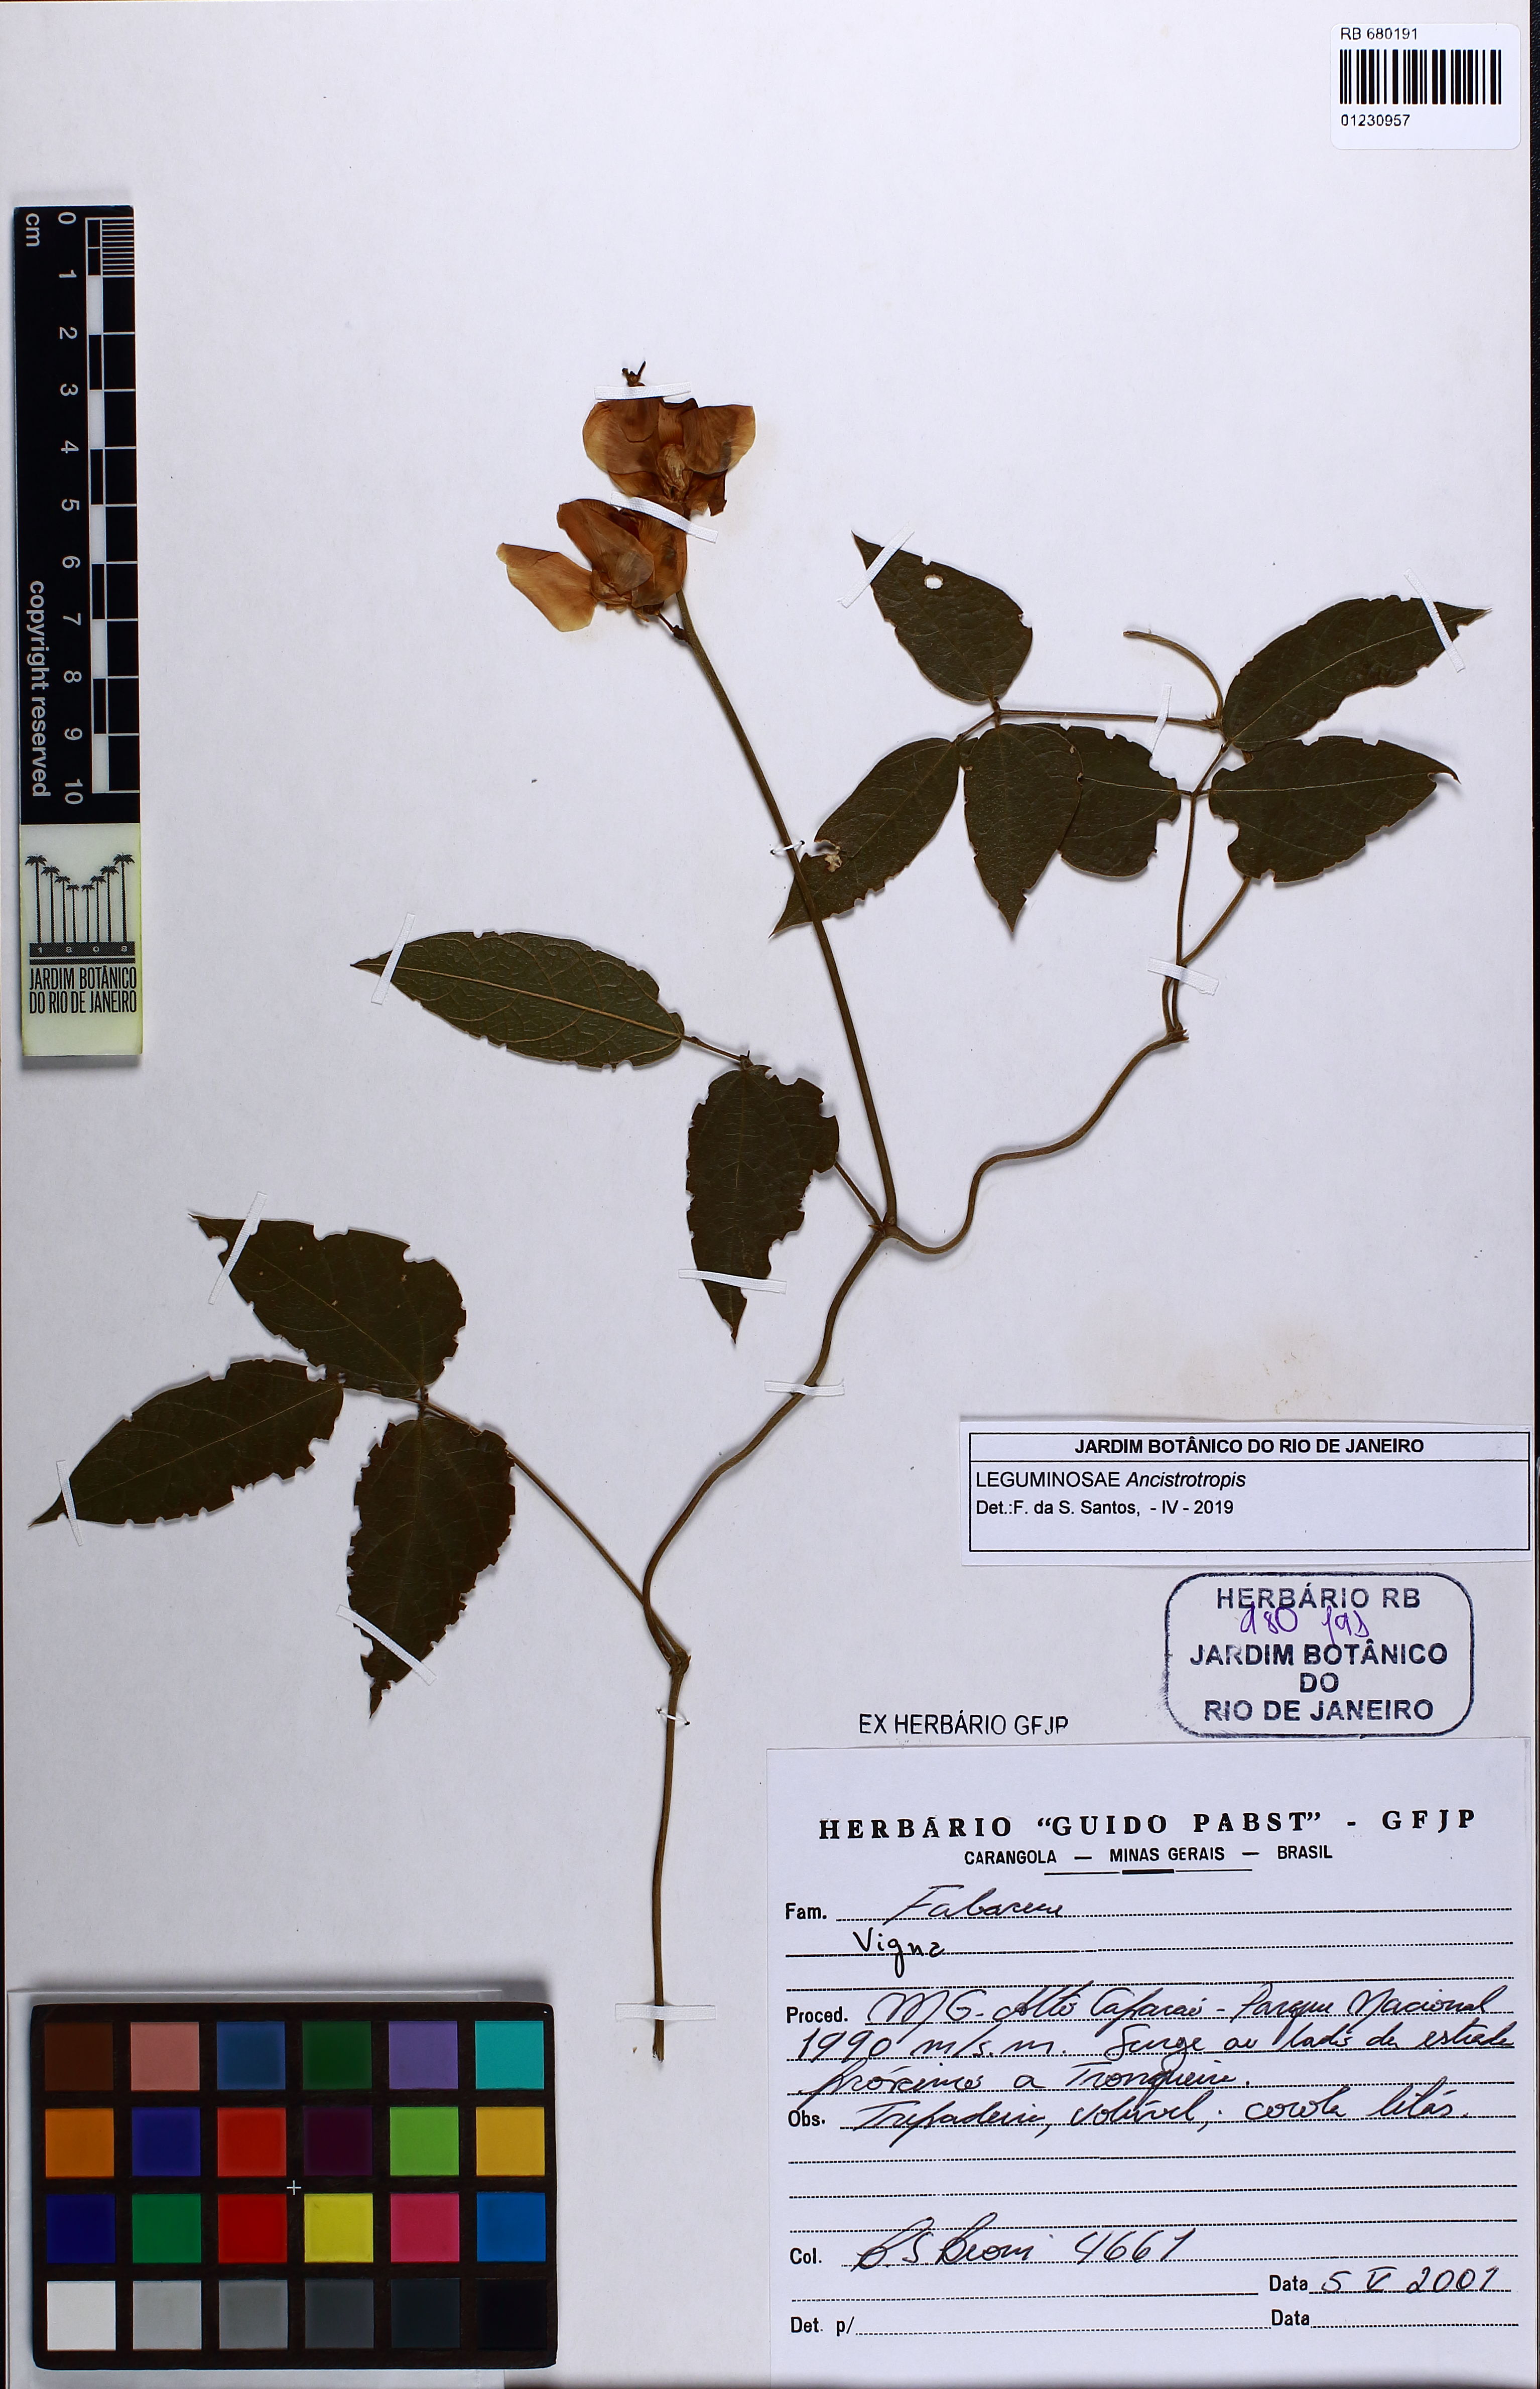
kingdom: Plantae
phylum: Tracheophyta
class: Magnoliopsida
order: Fabales
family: Fabaceae
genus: Ancistrotropis
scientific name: Ancistrotropis
